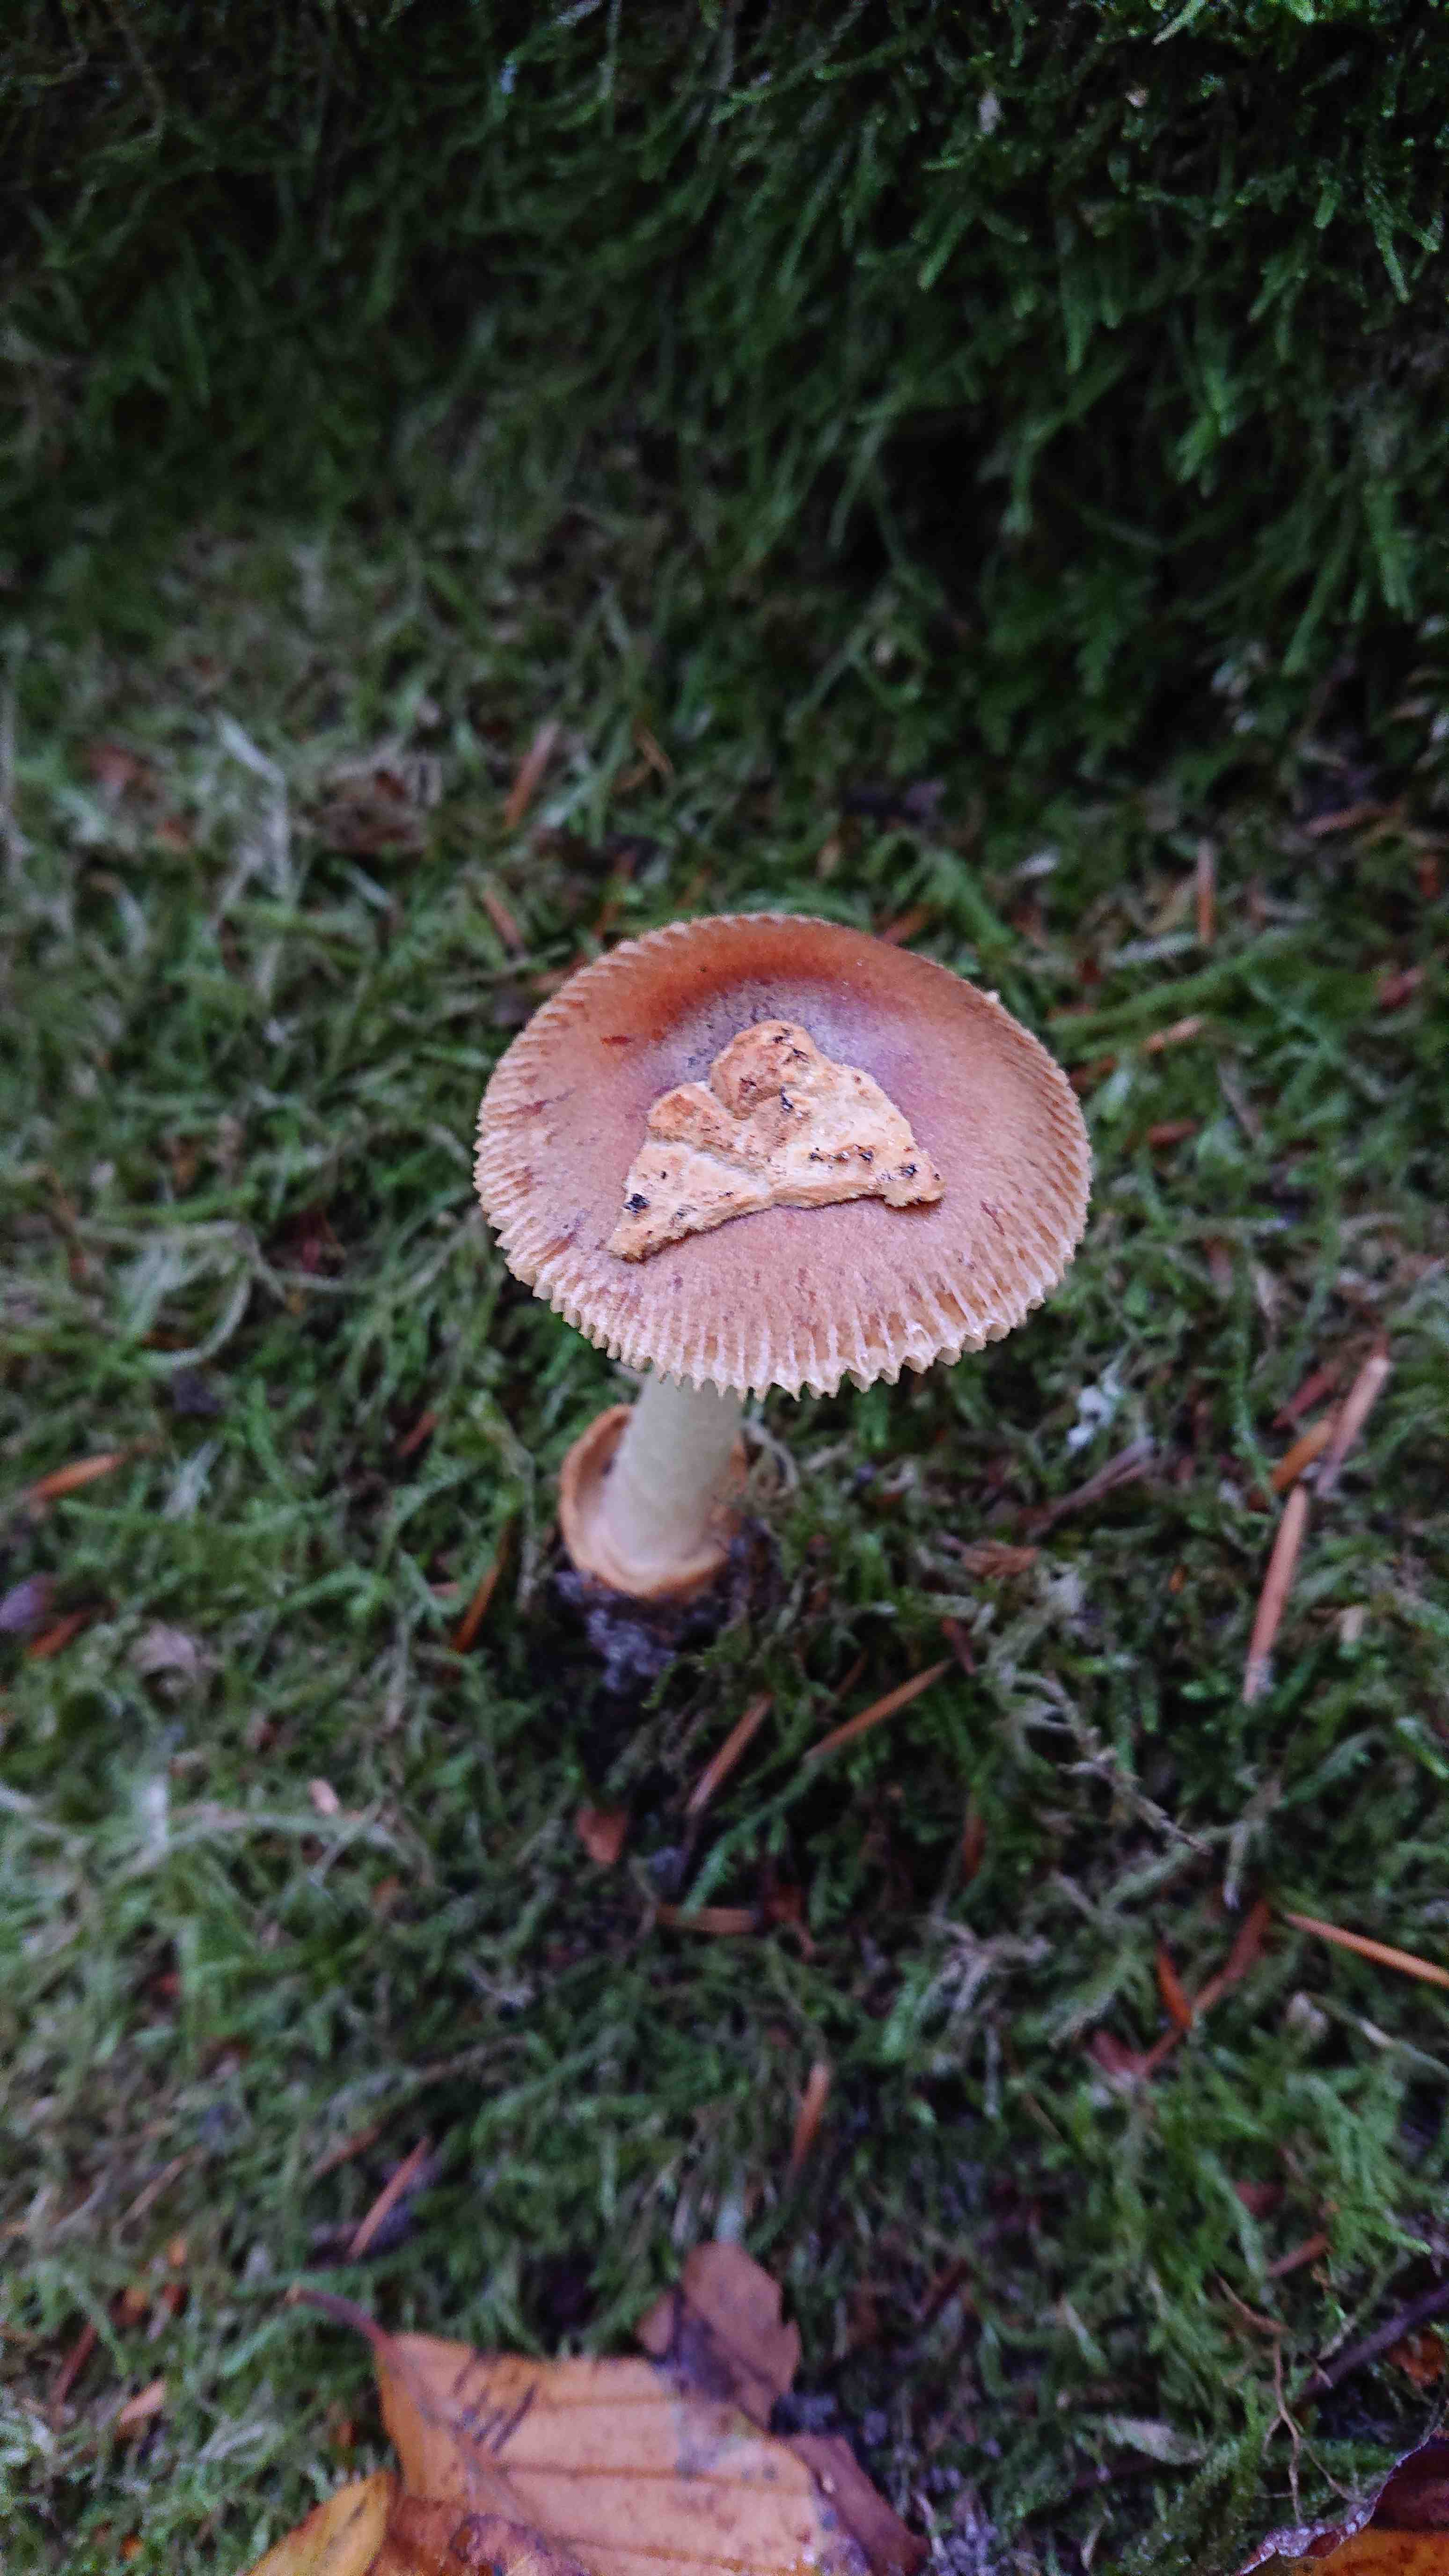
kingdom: Fungi
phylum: Basidiomycota
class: Agaricomycetes
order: Agaricales
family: Amanitaceae
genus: Amanita
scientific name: Amanita fulva
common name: brun kam-fluesvamp
